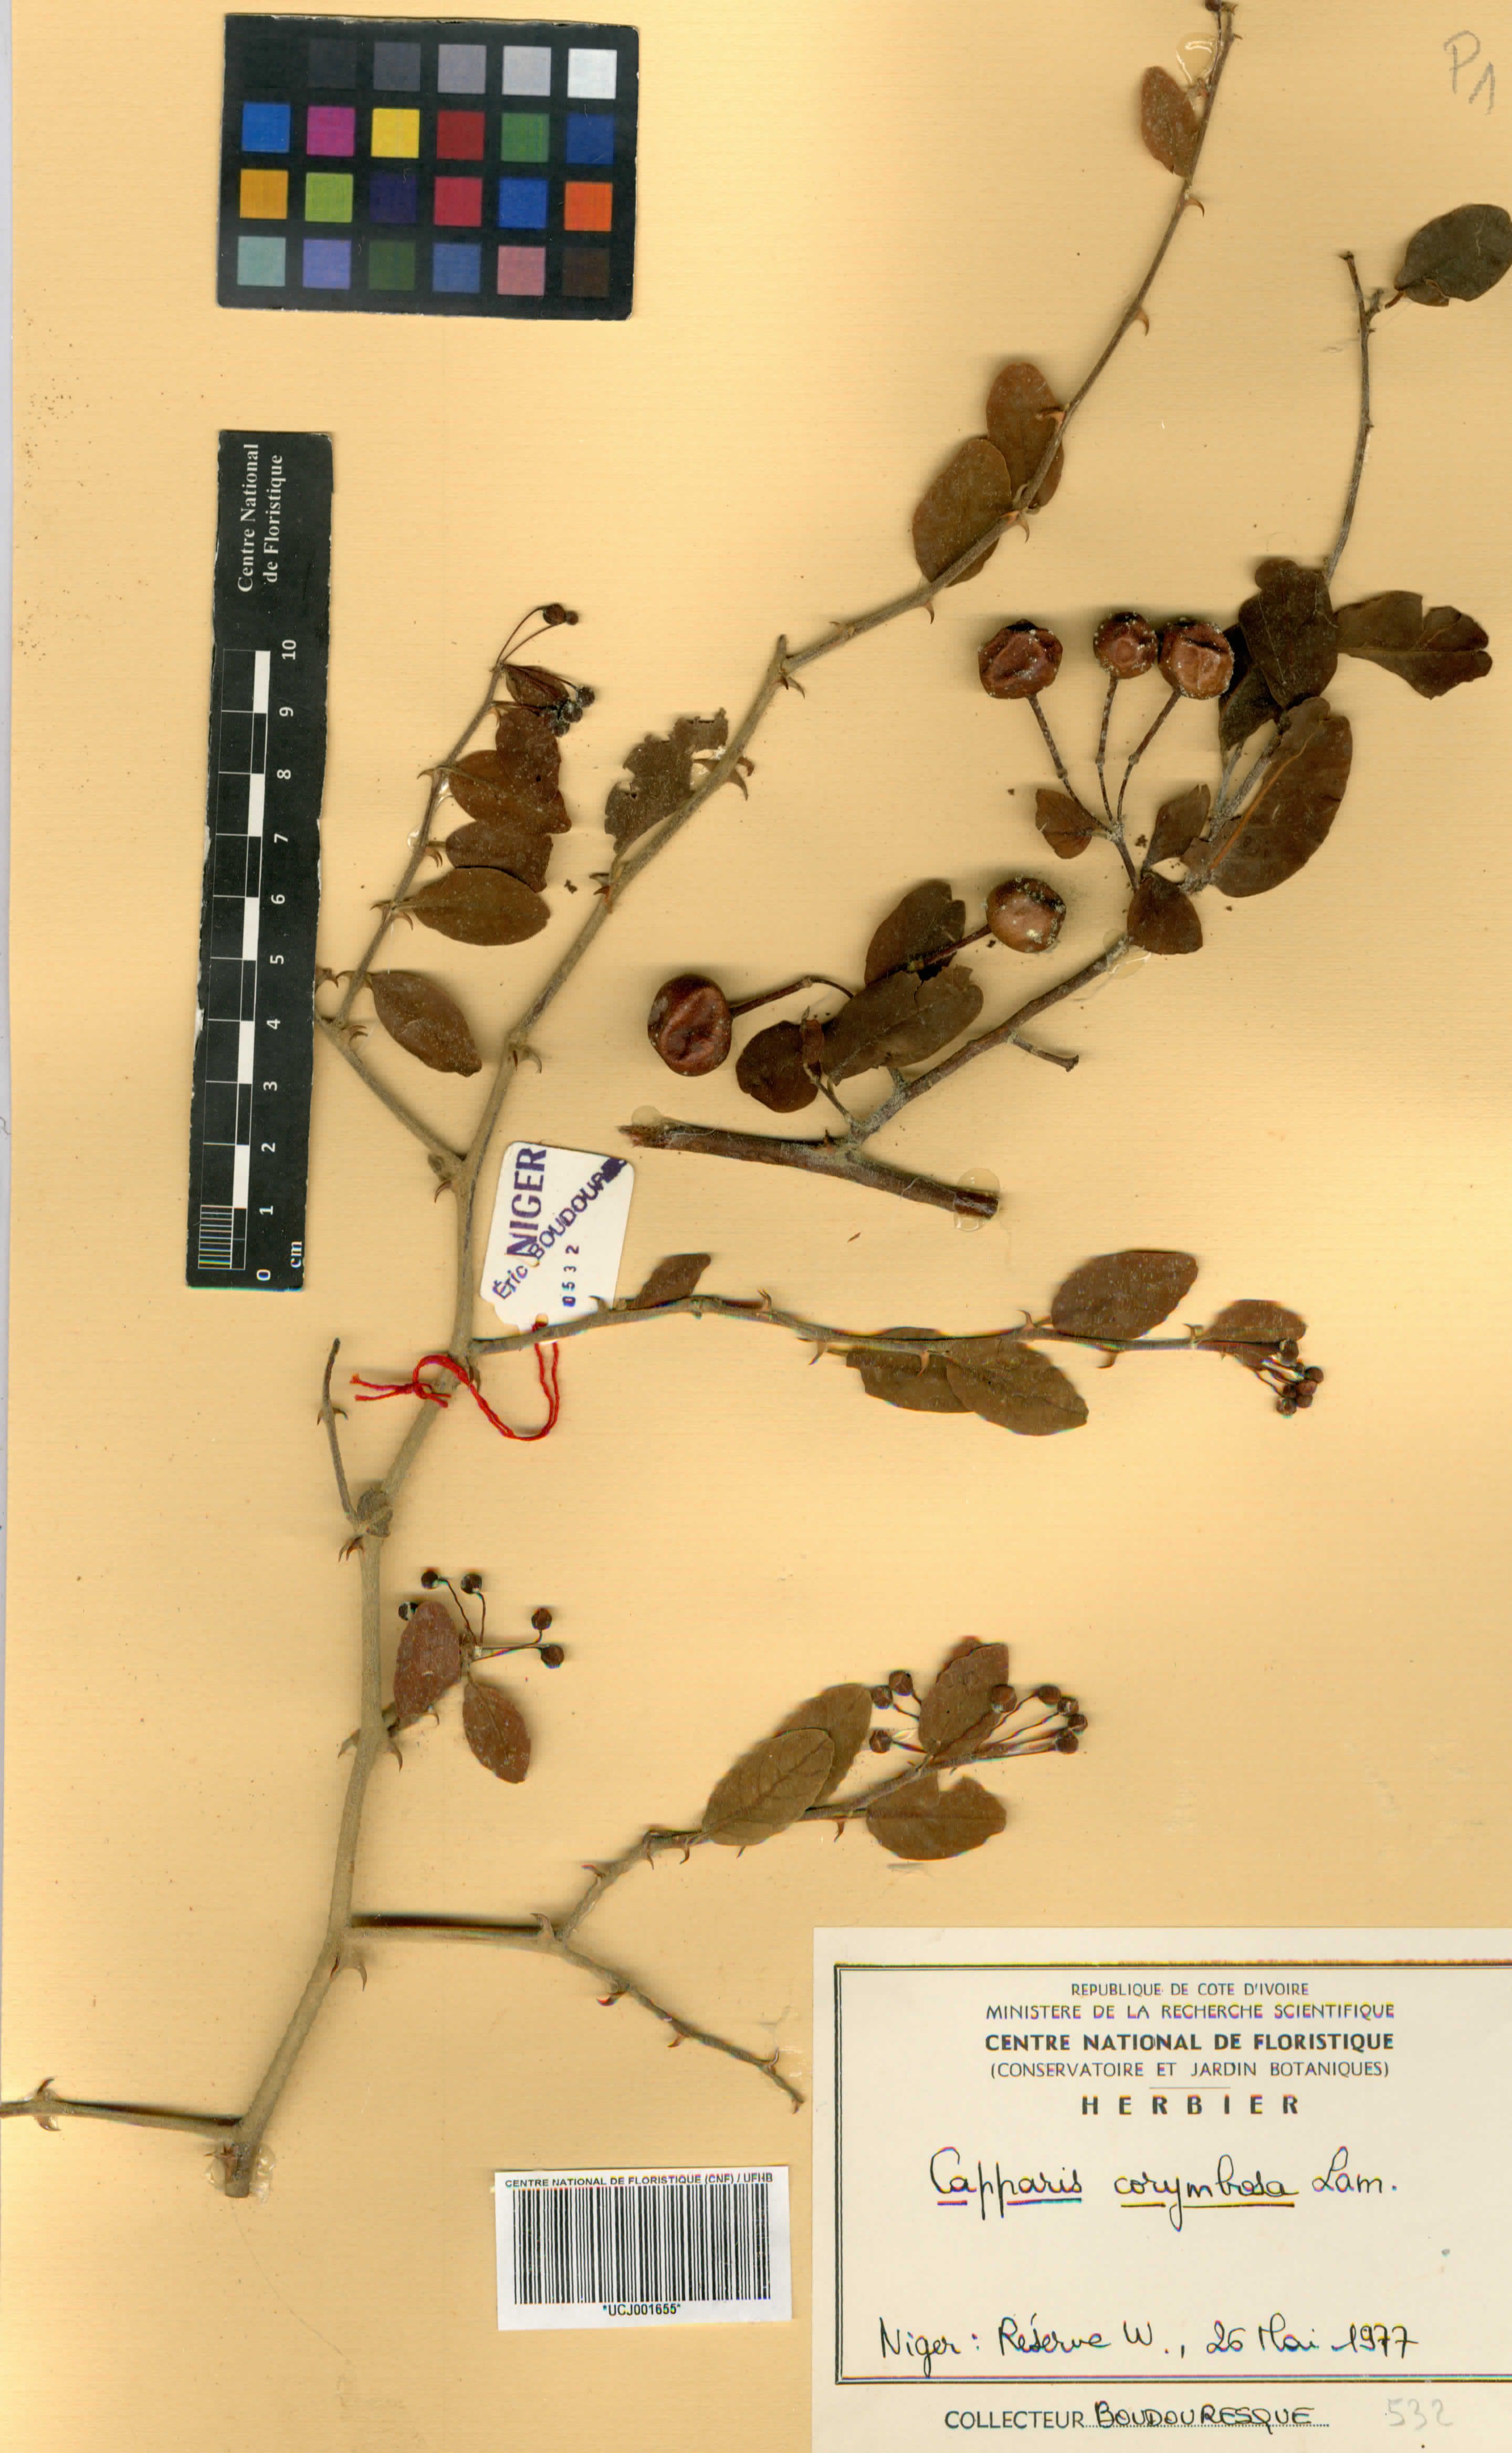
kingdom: Plantae
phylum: Tracheophyta
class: Magnoliopsida
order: Brassicales
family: Capparaceae
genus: Capparis
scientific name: Capparis corymbosa
